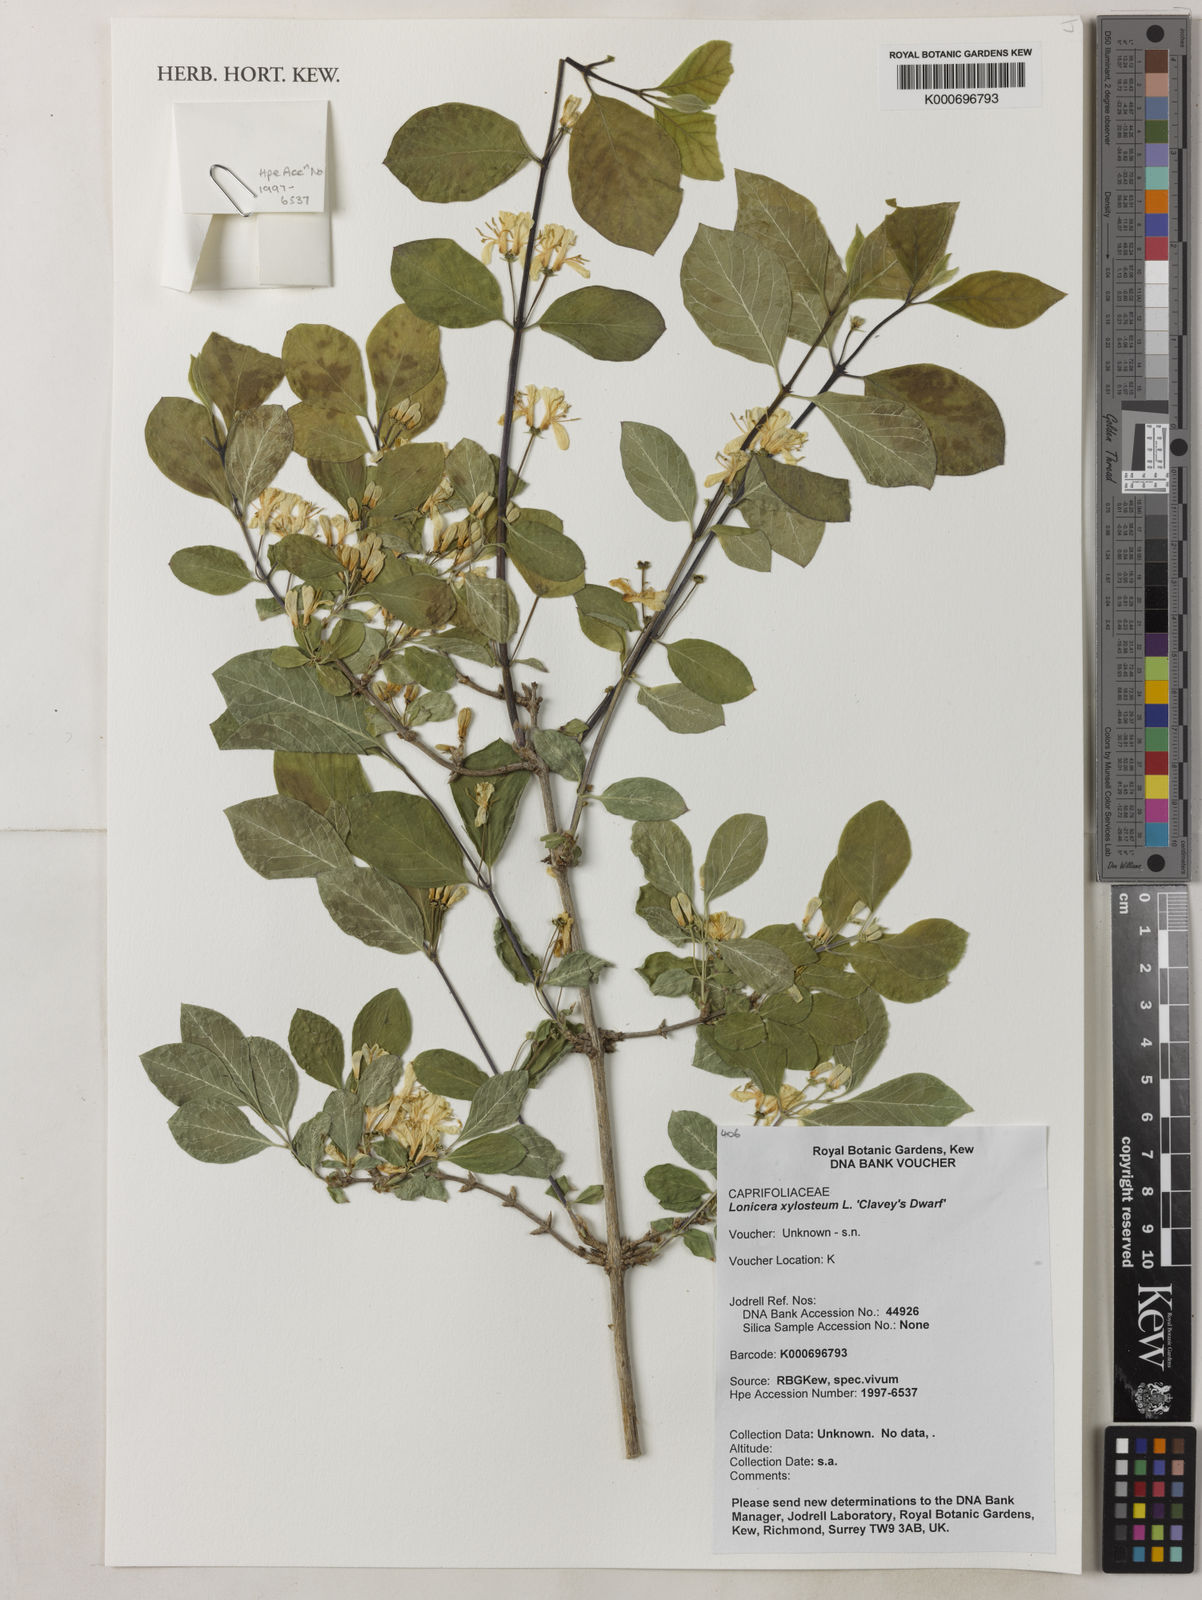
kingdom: Plantae
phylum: Tracheophyta
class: Magnoliopsida
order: Dipsacales
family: Caprifoliaceae
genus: Lonicera
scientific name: Lonicera
